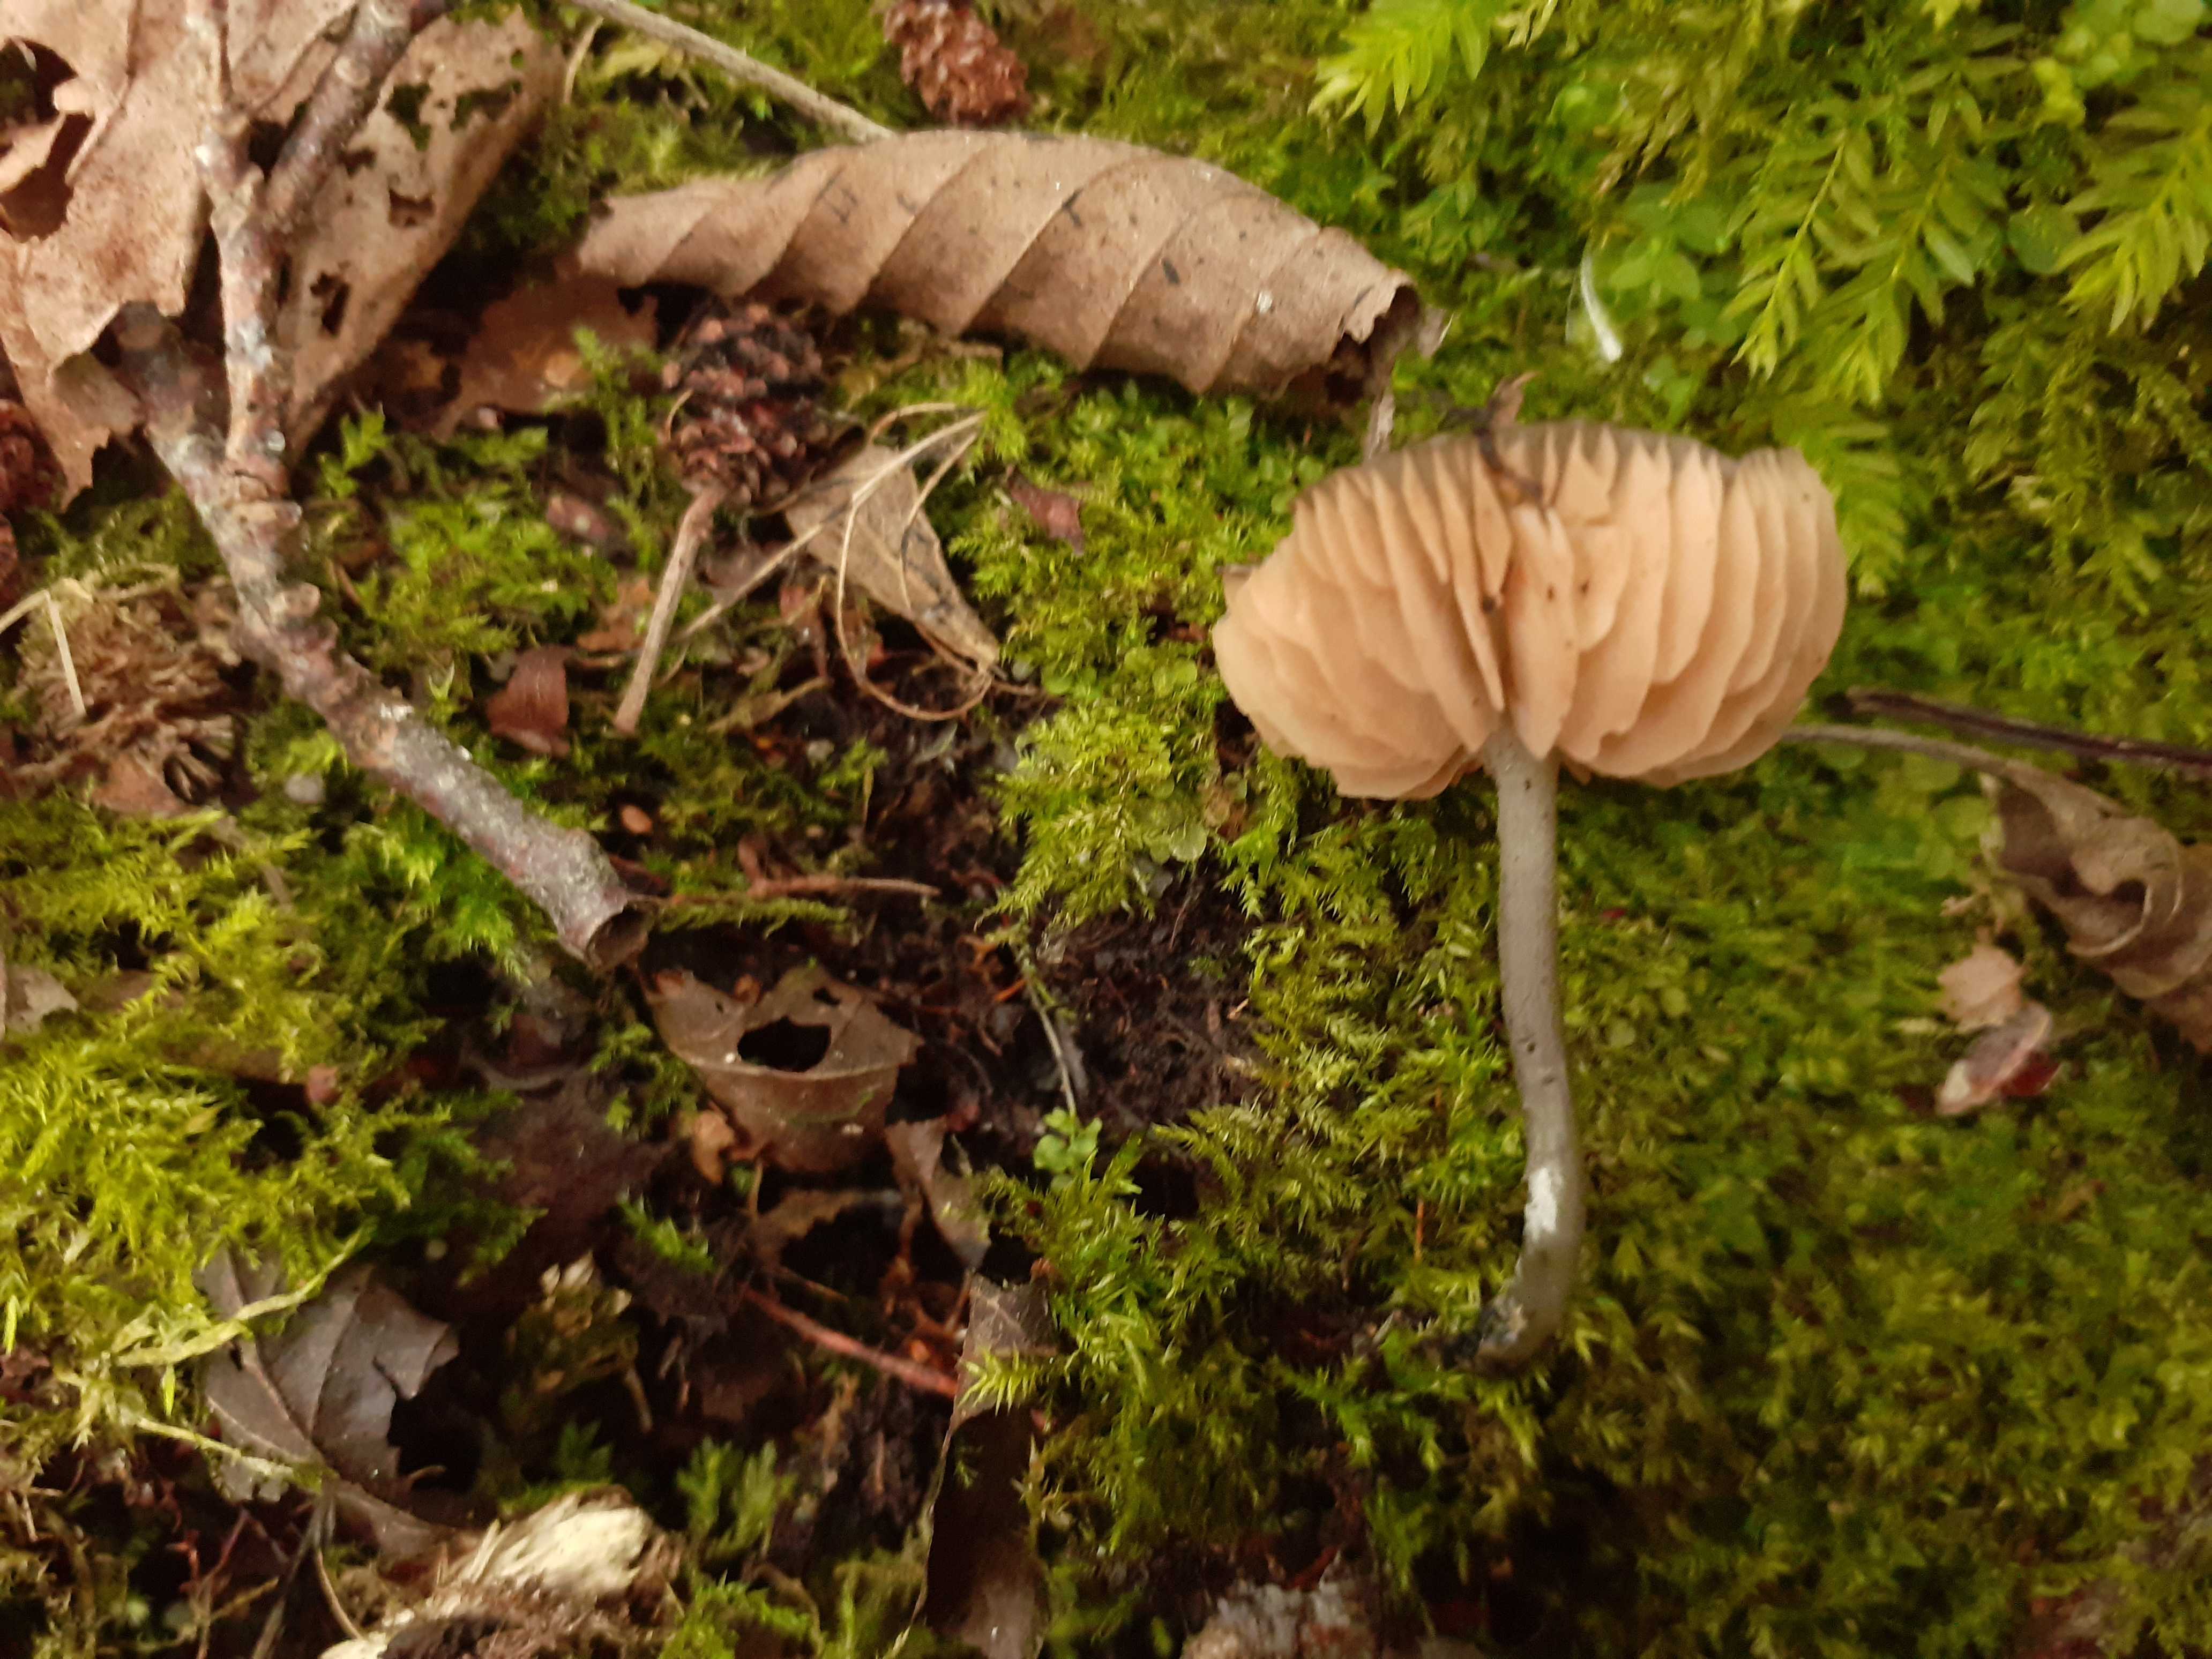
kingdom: Fungi
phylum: Basidiomycota
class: Agaricomycetes
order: Agaricales
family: Entolomataceae
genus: Entoloma
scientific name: Entoloma brunneicoeruleum
